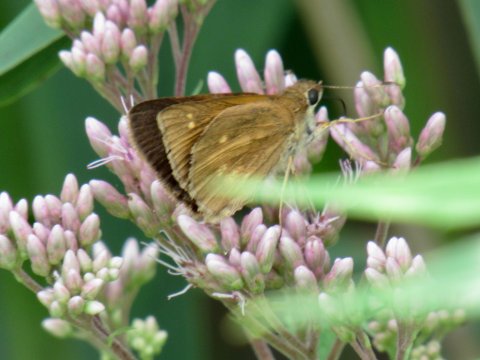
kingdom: Animalia
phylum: Arthropoda
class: Insecta
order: Lepidoptera
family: Hesperiidae
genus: Poanes
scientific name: Poanes viator
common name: Broad-winged Skipper
